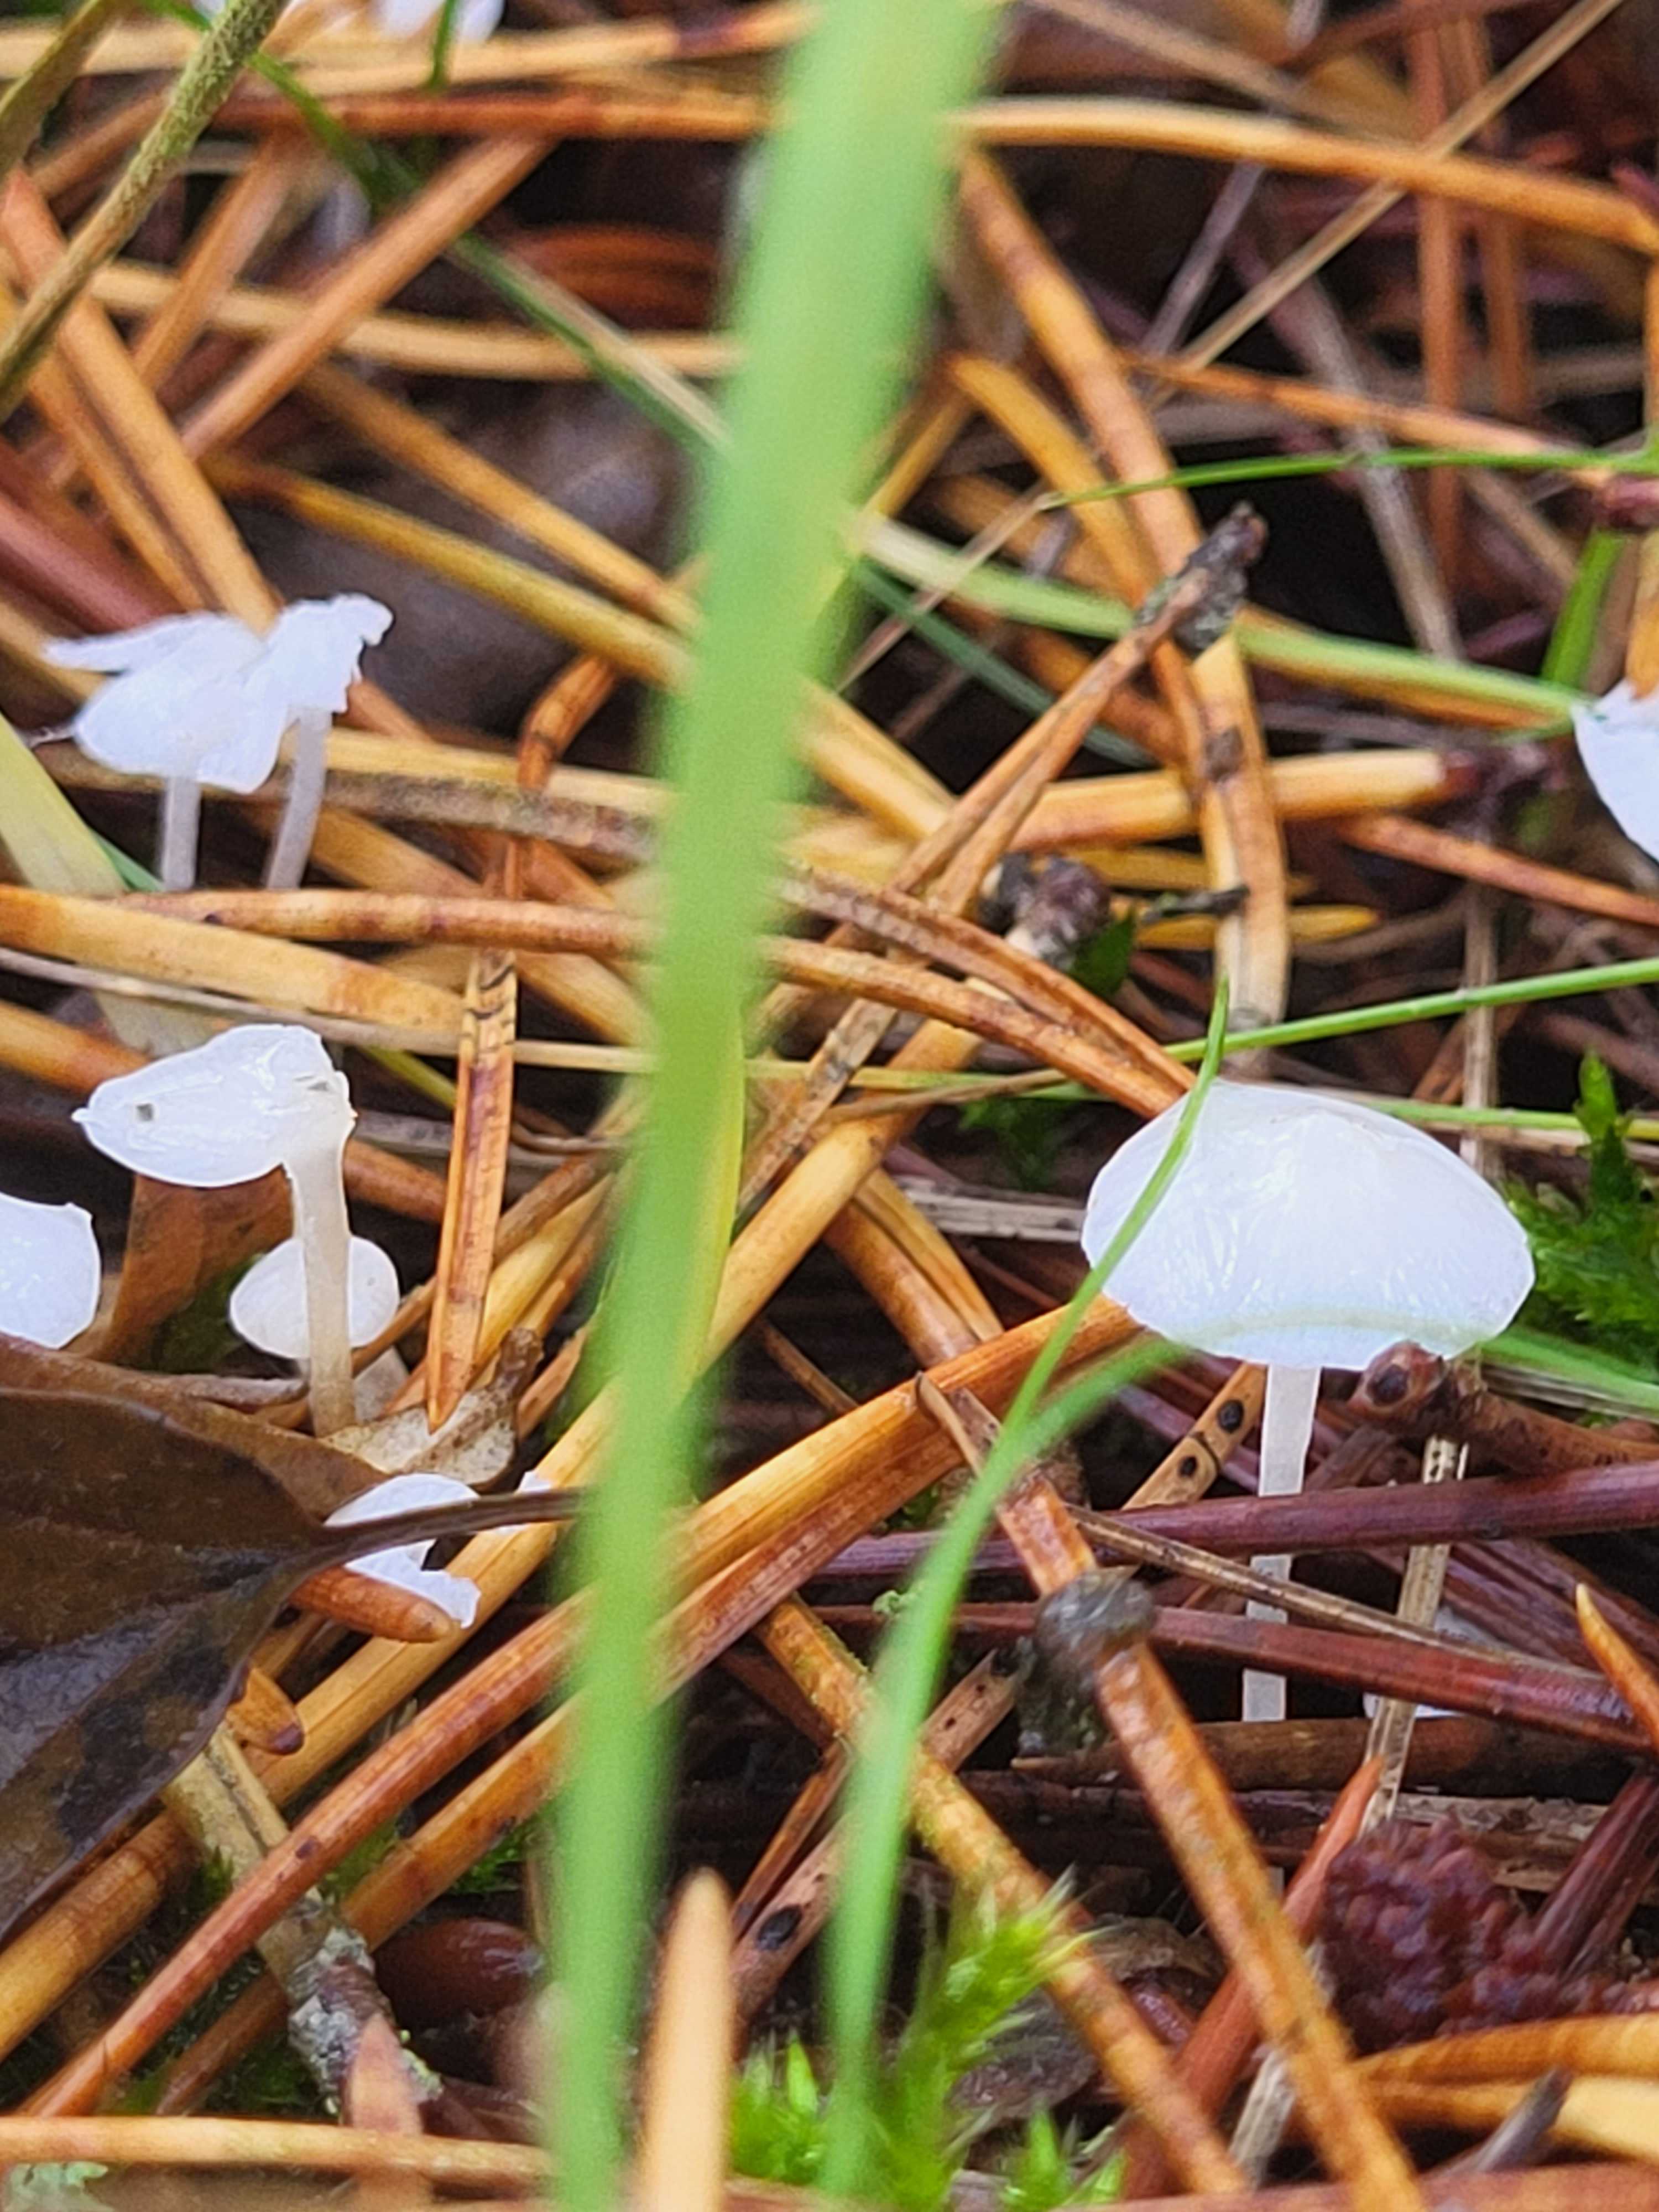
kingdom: Fungi
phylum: Basidiomycota
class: Agaricomycetes
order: Agaricales
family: Mycenaceae
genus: Hemimycena
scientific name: Hemimycena
